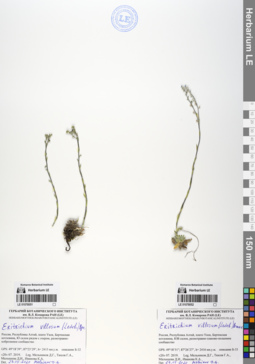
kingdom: Plantae
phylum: Tracheophyta
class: Magnoliopsida
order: Boraginales
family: Boraginaceae
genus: Eritrichium
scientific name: Eritrichium villosum
